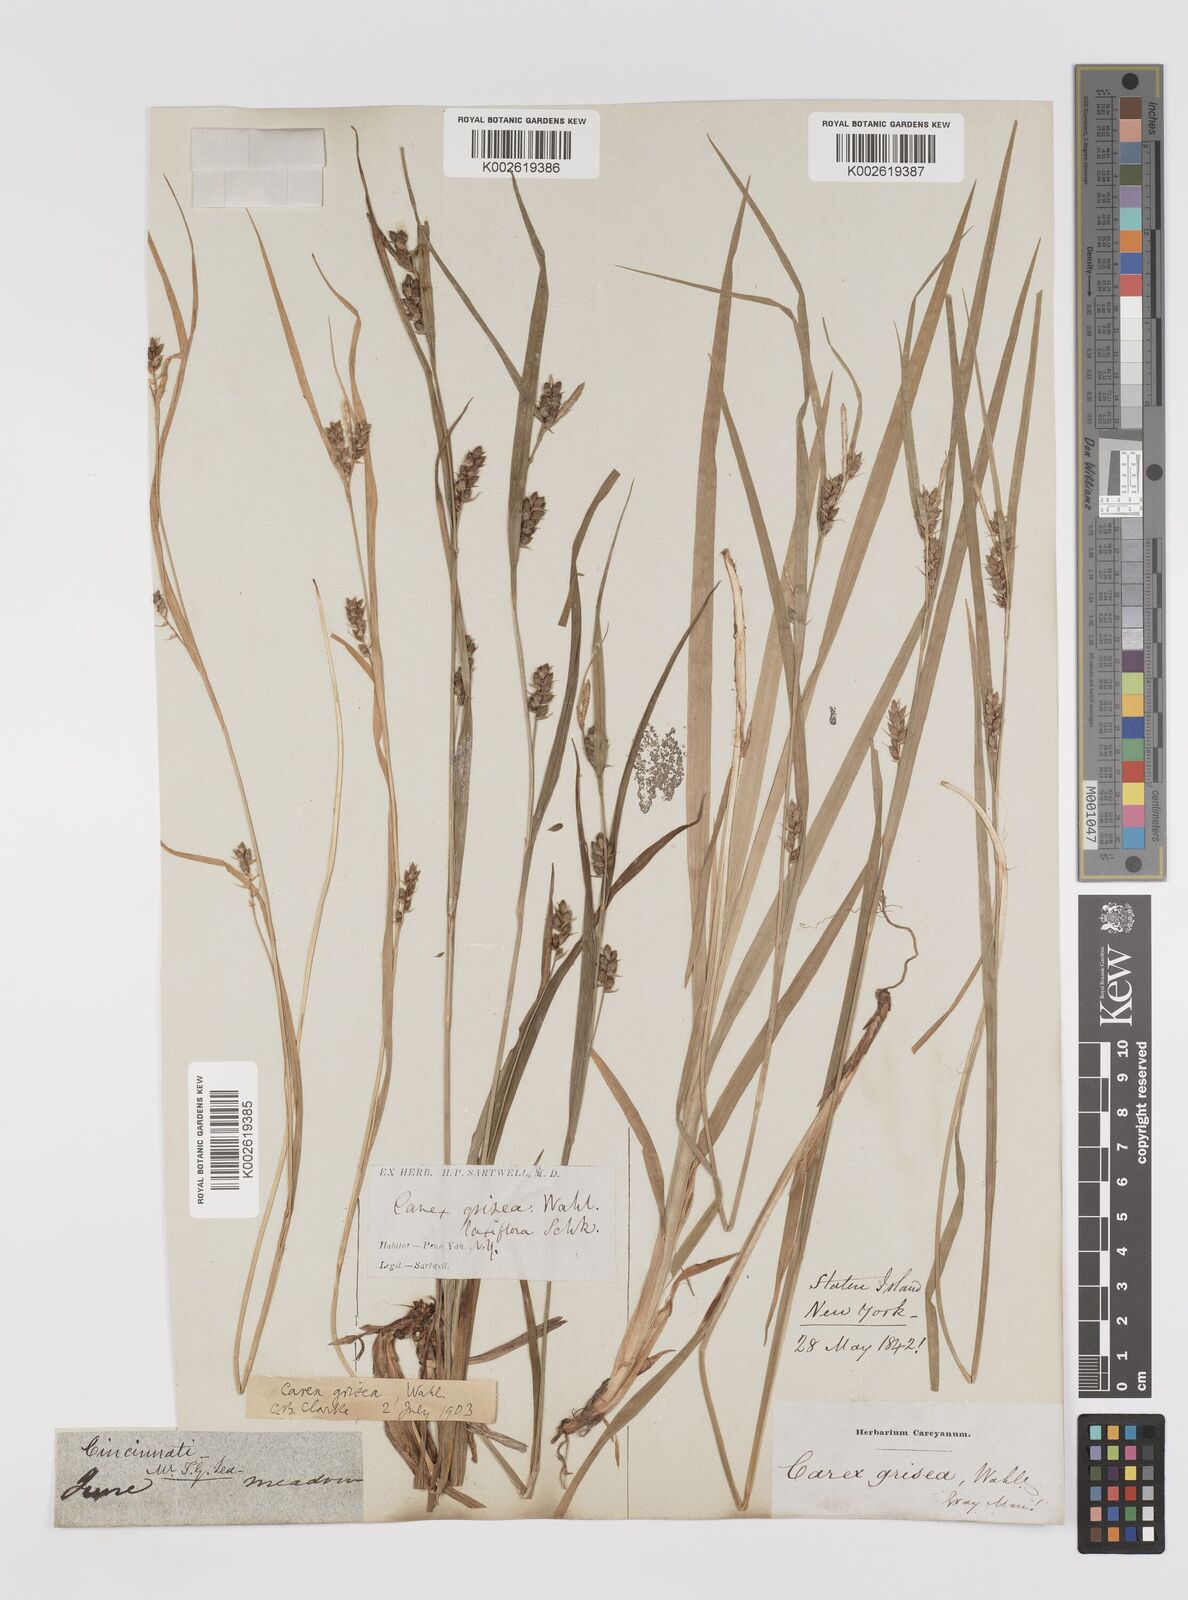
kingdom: Plantae
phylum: Tracheophyta
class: Liliopsida
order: Poales
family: Cyperaceae
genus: Carex
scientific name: Carex grisea
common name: Eastern narrow-leaved sedge
